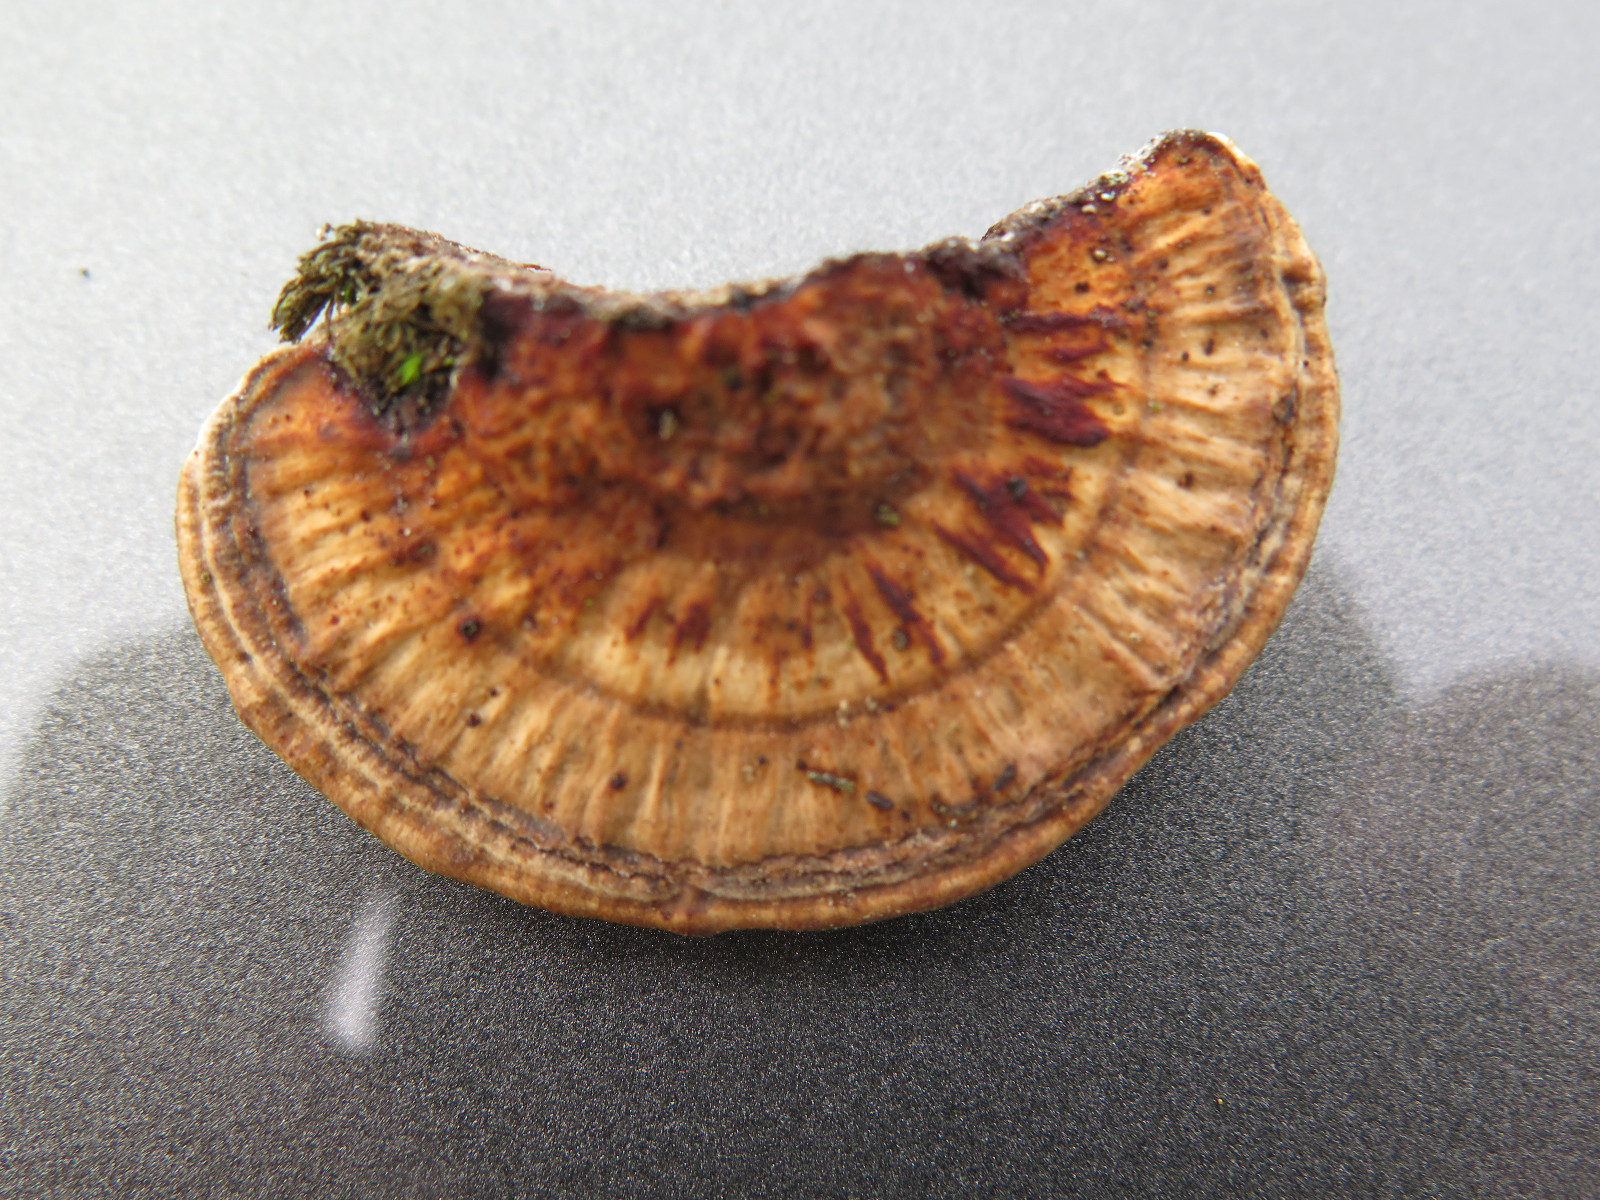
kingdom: Fungi
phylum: Basidiomycota
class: Agaricomycetes
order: Polyporales
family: Polyporaceae
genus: Daedaleopsis
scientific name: Daedaleopsis confragosa
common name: rødmende læderporesvamp
